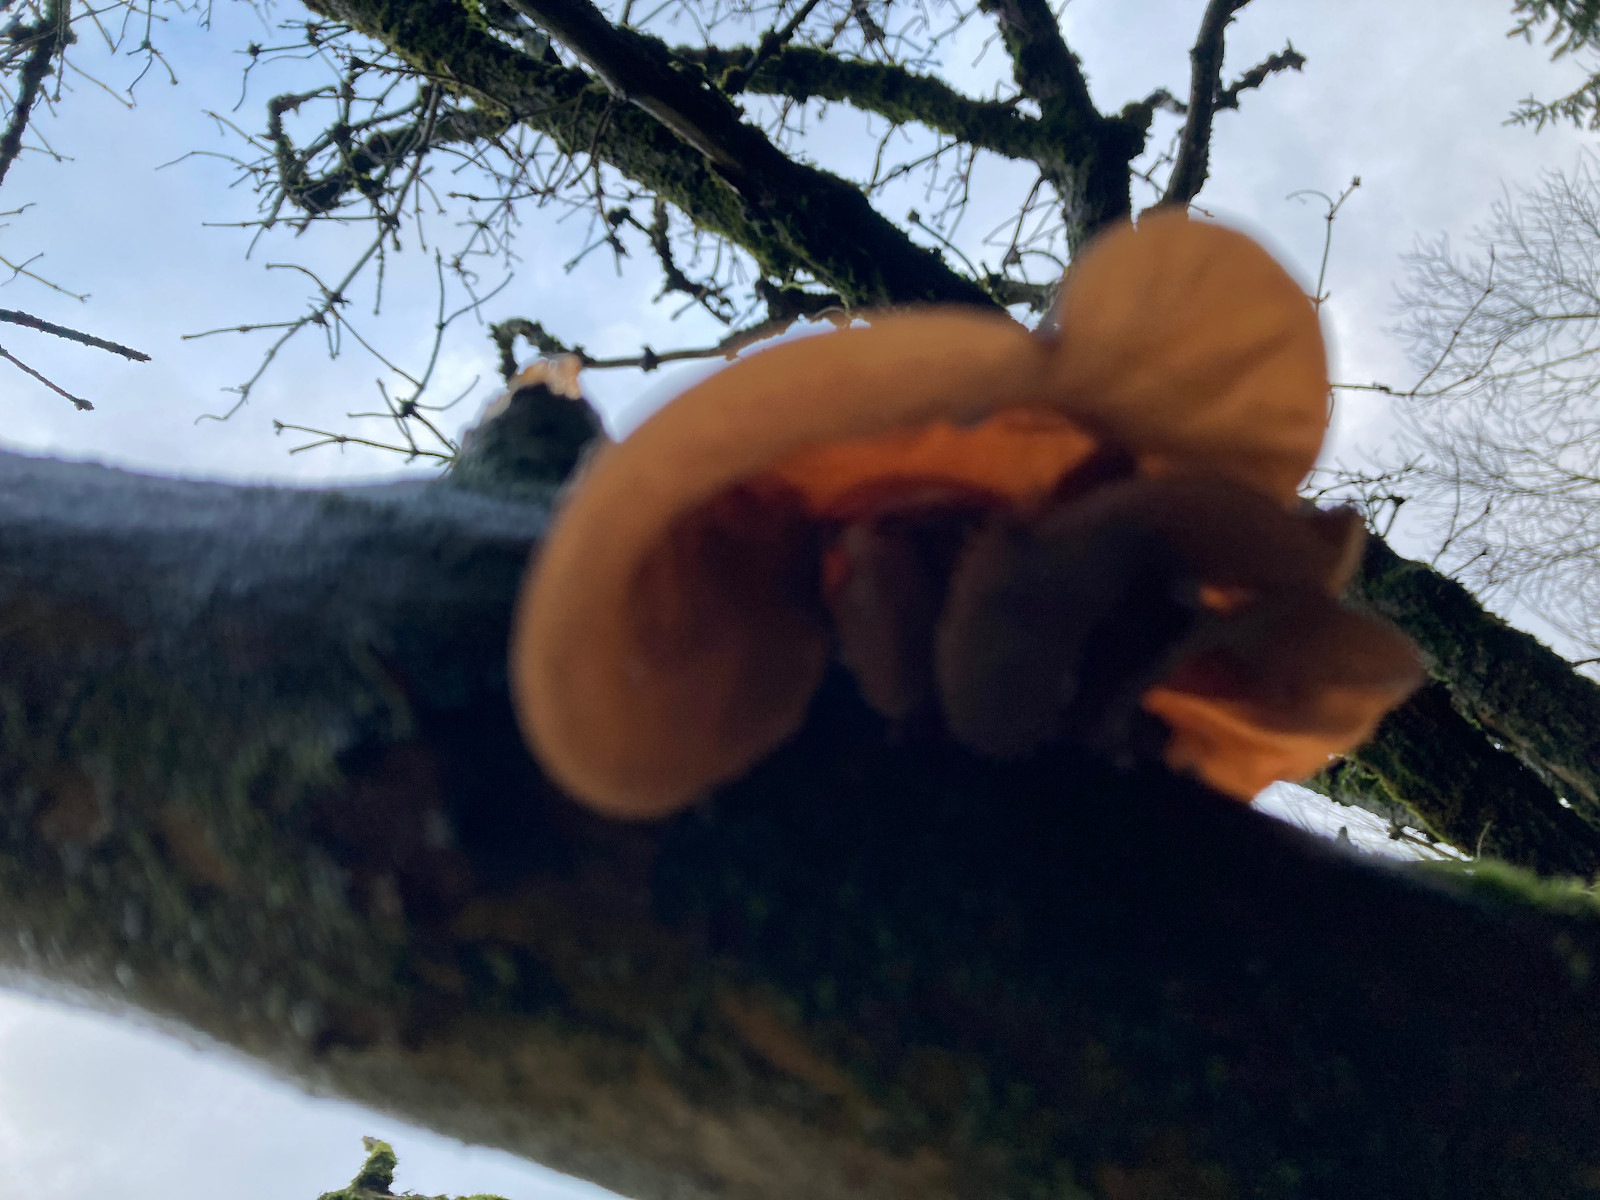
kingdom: Fungi
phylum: Basidiomycota
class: Agaricomycetes
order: Auriculariales
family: Auriculariaceae
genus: Auricularia
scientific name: Auricularia auricula-judae
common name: almindelig judasøre
